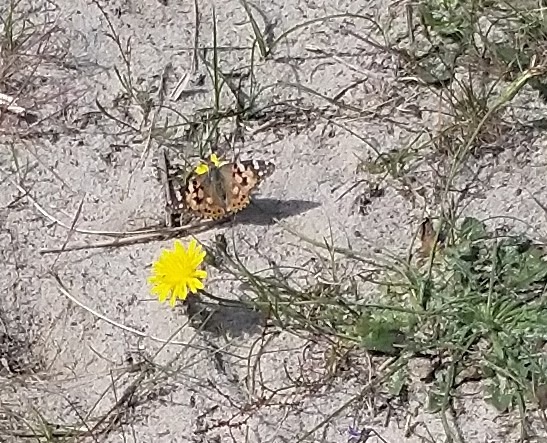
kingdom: Animalia
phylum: Arthropoda
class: Insecta
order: Lepidoptera
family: Nymphalidae
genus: Vanessa
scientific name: Vanessa cardui
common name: Tidselsommerfugl
